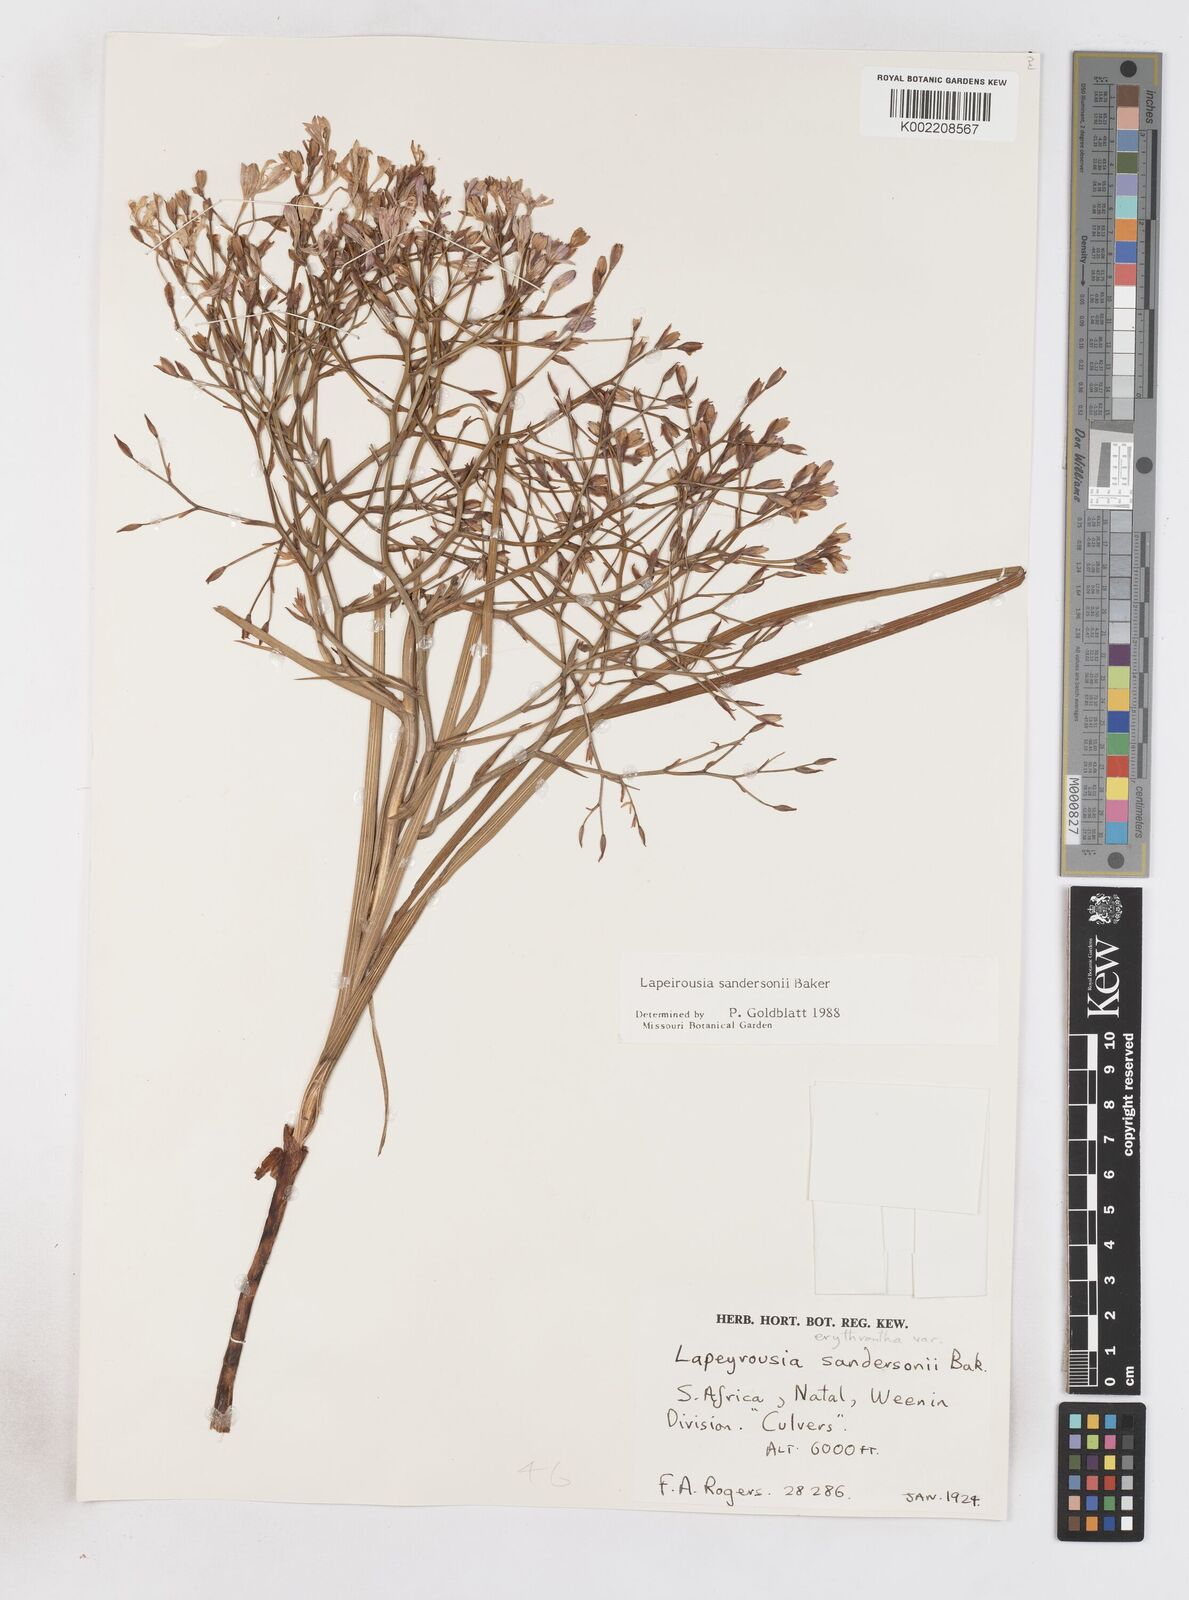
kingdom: Plantae
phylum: Tracheophyta
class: Liliopsida
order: Asparagales
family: Iridaceae
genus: Afrosolen
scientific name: Afrosolen sandersonii
